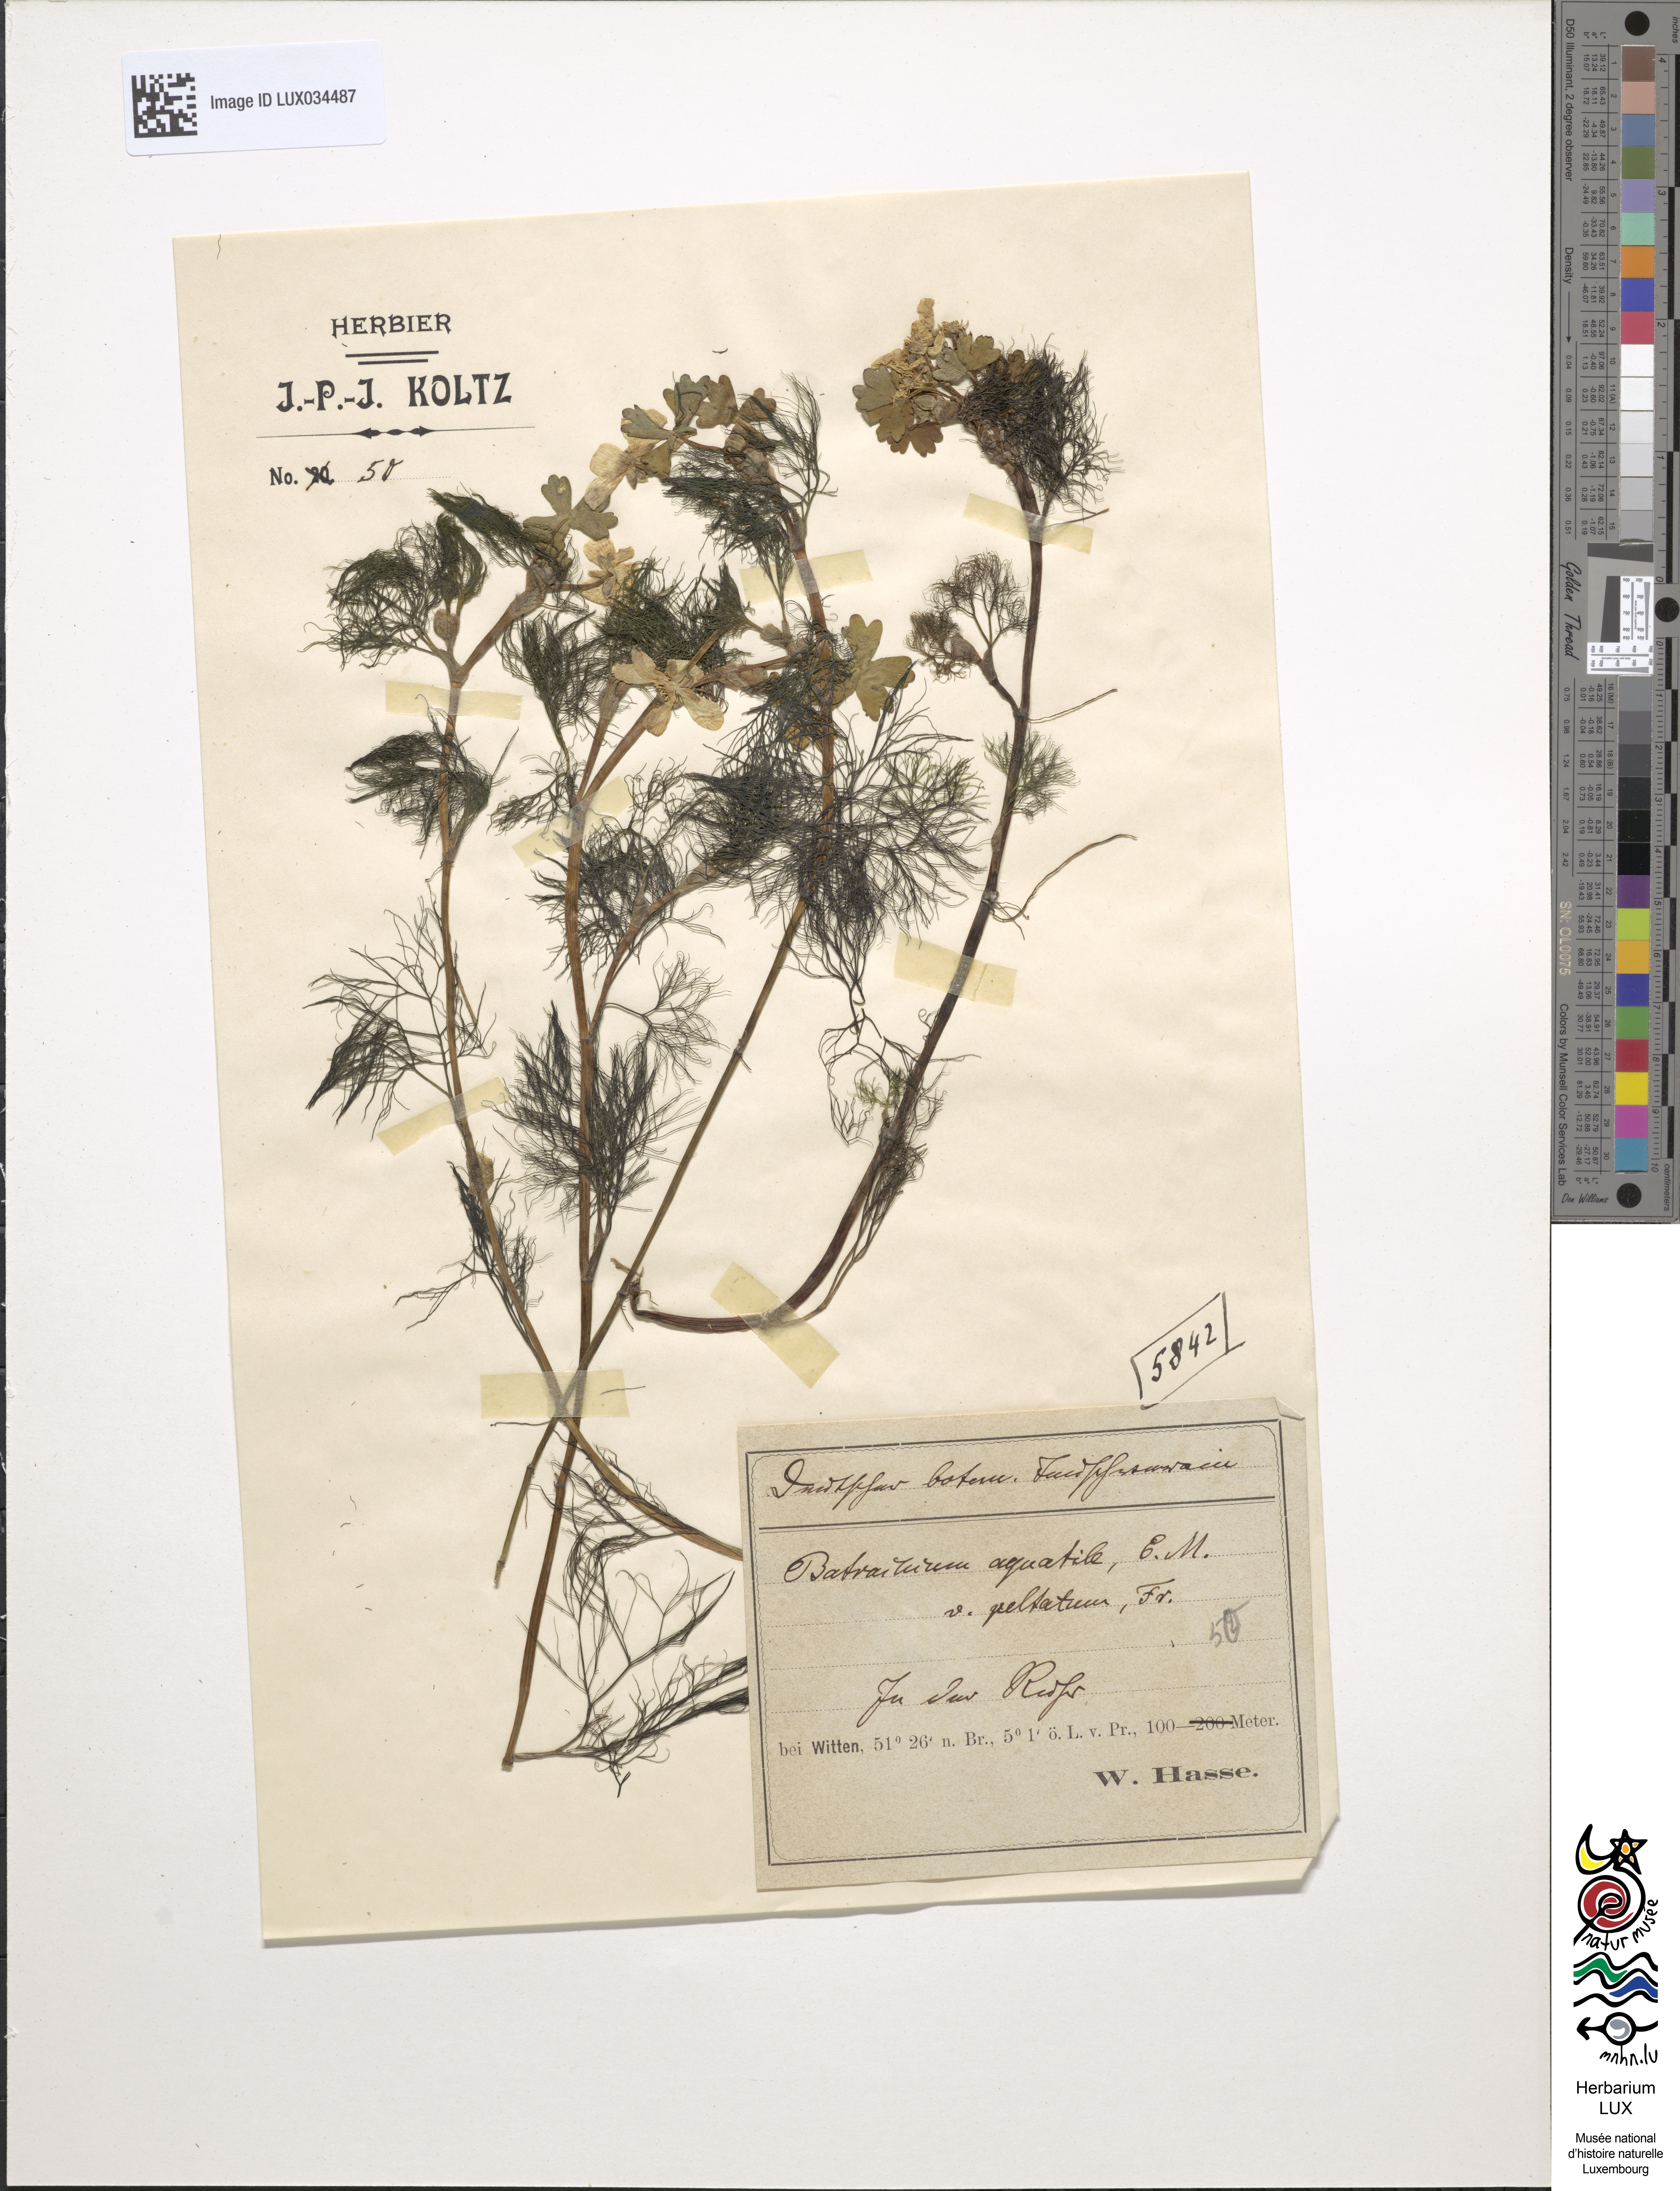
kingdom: Plantae
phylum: Tracheophyta
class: Magnoliopsida
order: Ranunculales
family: Ranunculaceae
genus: Ranunculus
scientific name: Ranunculus peltatus
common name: Pond water-crowfoot
